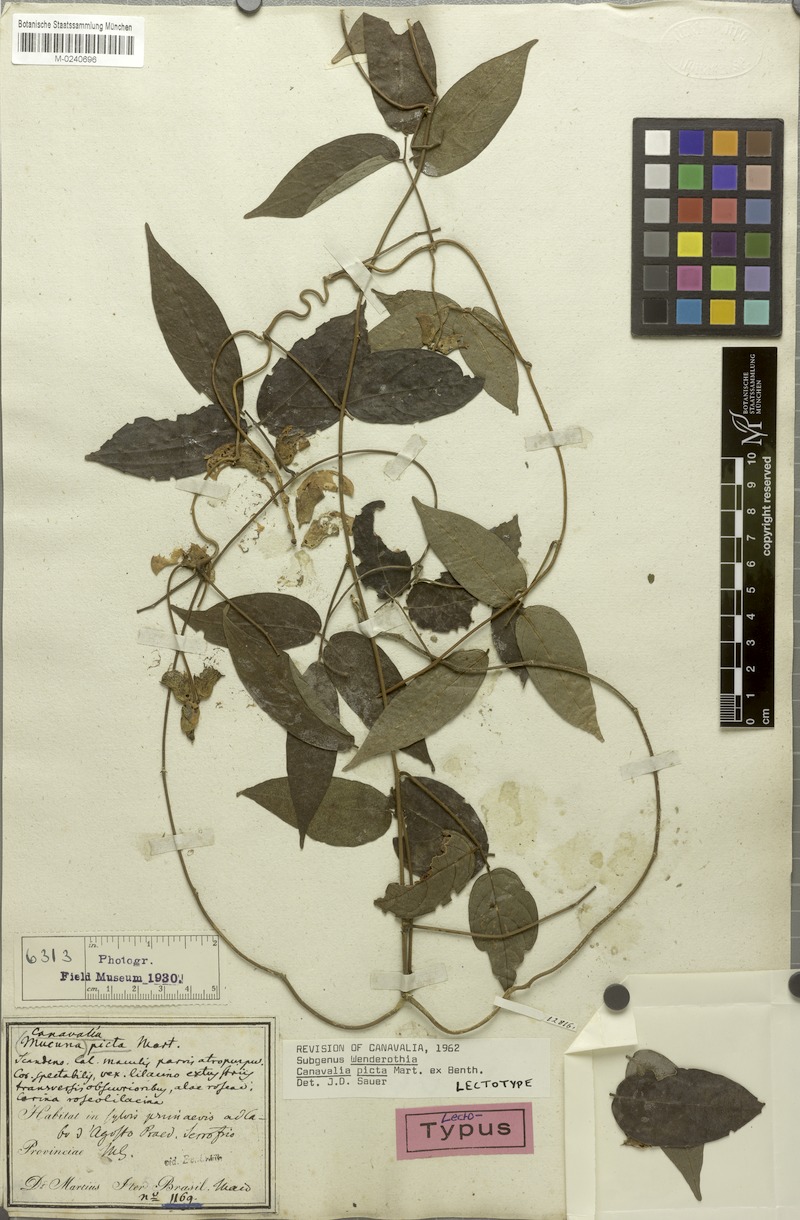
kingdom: Plantae
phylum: Tracheophyta
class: Magnoliopsida
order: Fabales
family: Fabaceae
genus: Canavalia
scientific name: Canavalia picta
